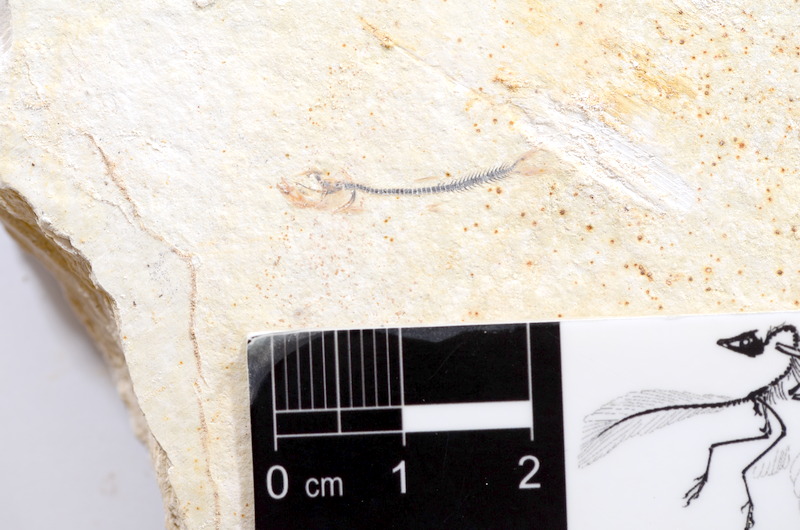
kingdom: Animalia
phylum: Chordata
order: Salmoniformes
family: Orthogonikleithridae
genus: Orthogonikleithrus
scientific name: Orthogonikleithrus hoelli
